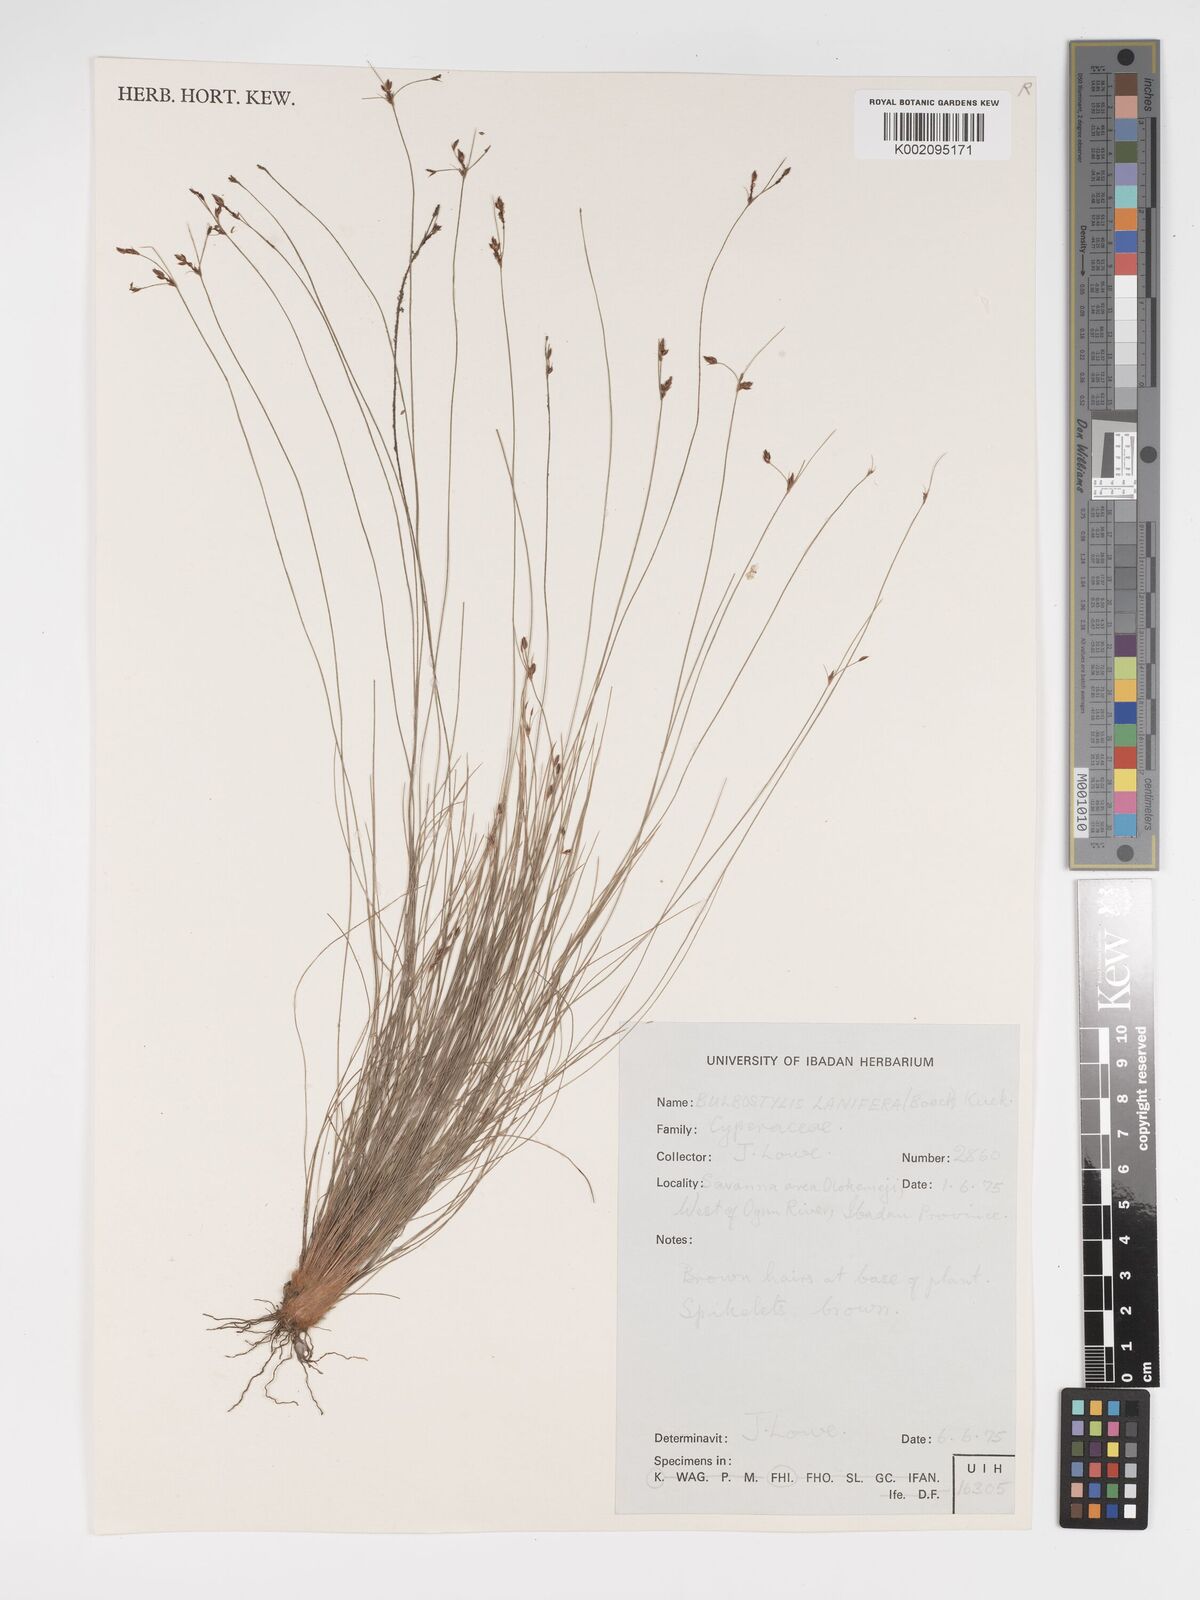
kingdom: Plantae
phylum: Tracheophyta
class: Liliopsida
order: Poales
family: Cyperaceae
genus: Bulbostylis
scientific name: Bulbostylis lanifera
